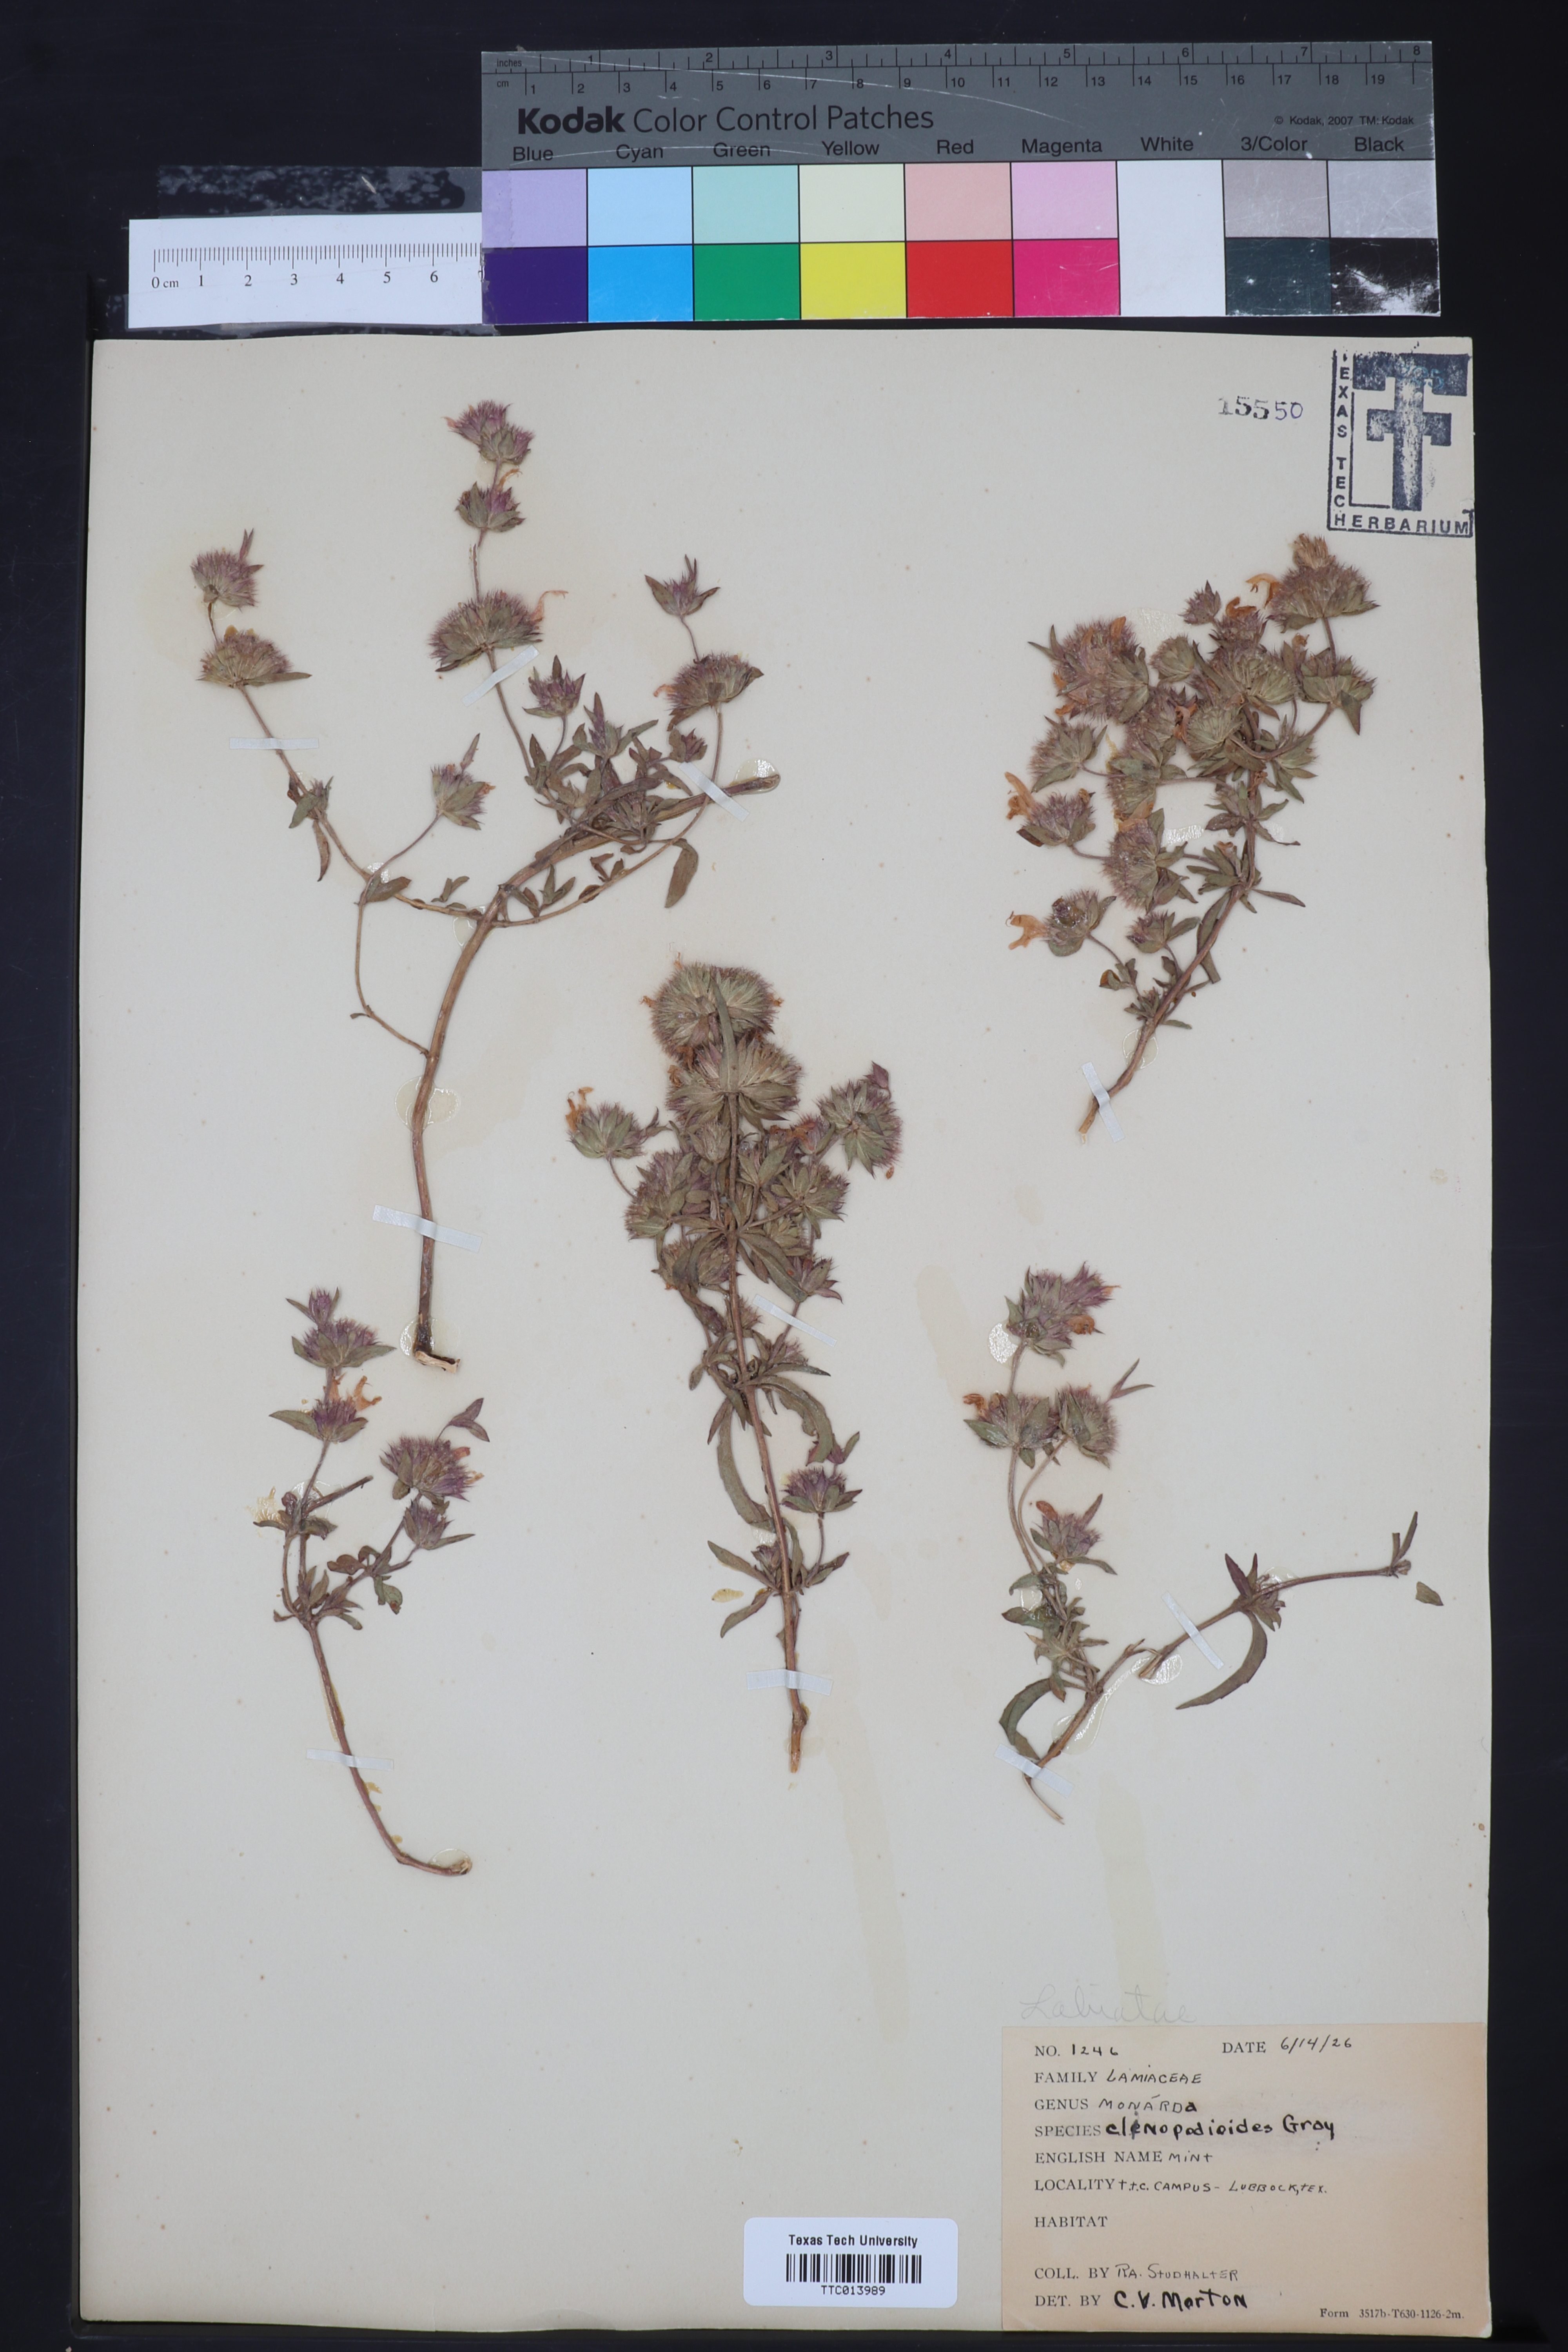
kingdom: Plantae
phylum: Tracheophyta
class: Magnoliopsida
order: Lamiales
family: Lamiaceae
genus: Monarda
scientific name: Monarda clinopodioides
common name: Basil beebalm
